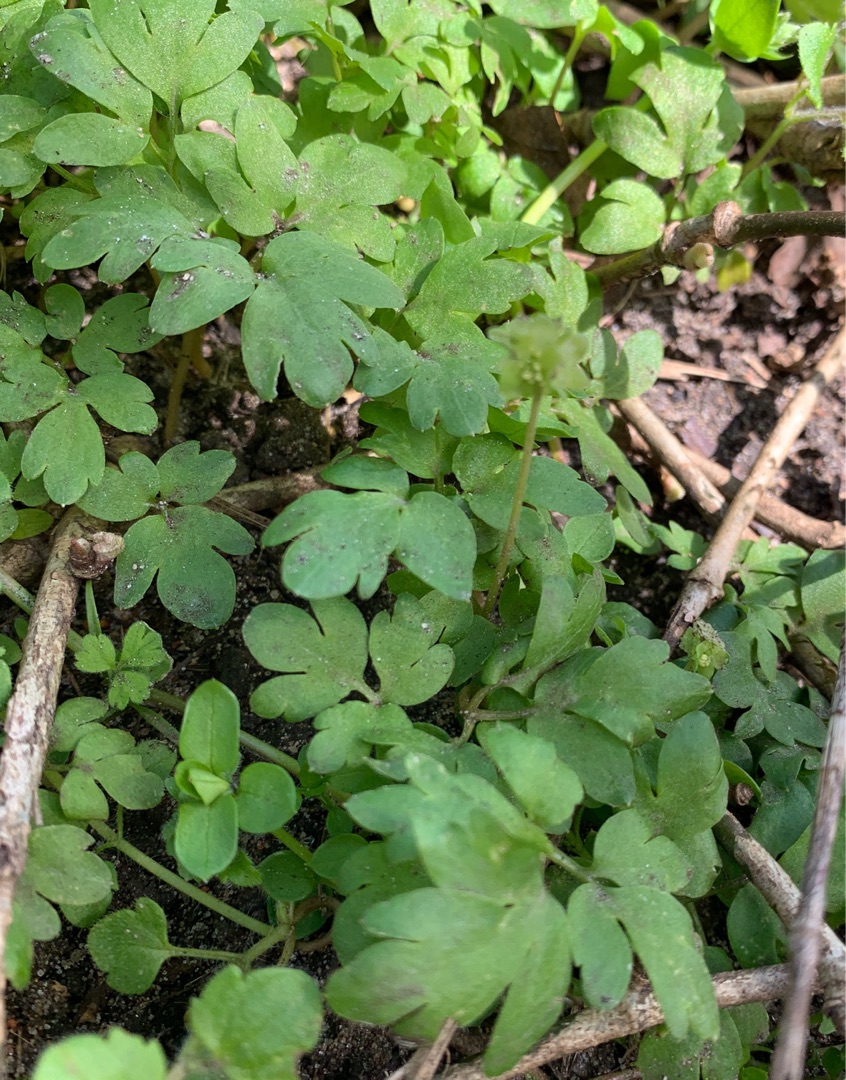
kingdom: Plantae
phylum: Tracheophyta
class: Magnoliopsida
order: Dipsacales
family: Viburnaceae
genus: Adoxa
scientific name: Adoxa moschatellina
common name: Desmerurt
